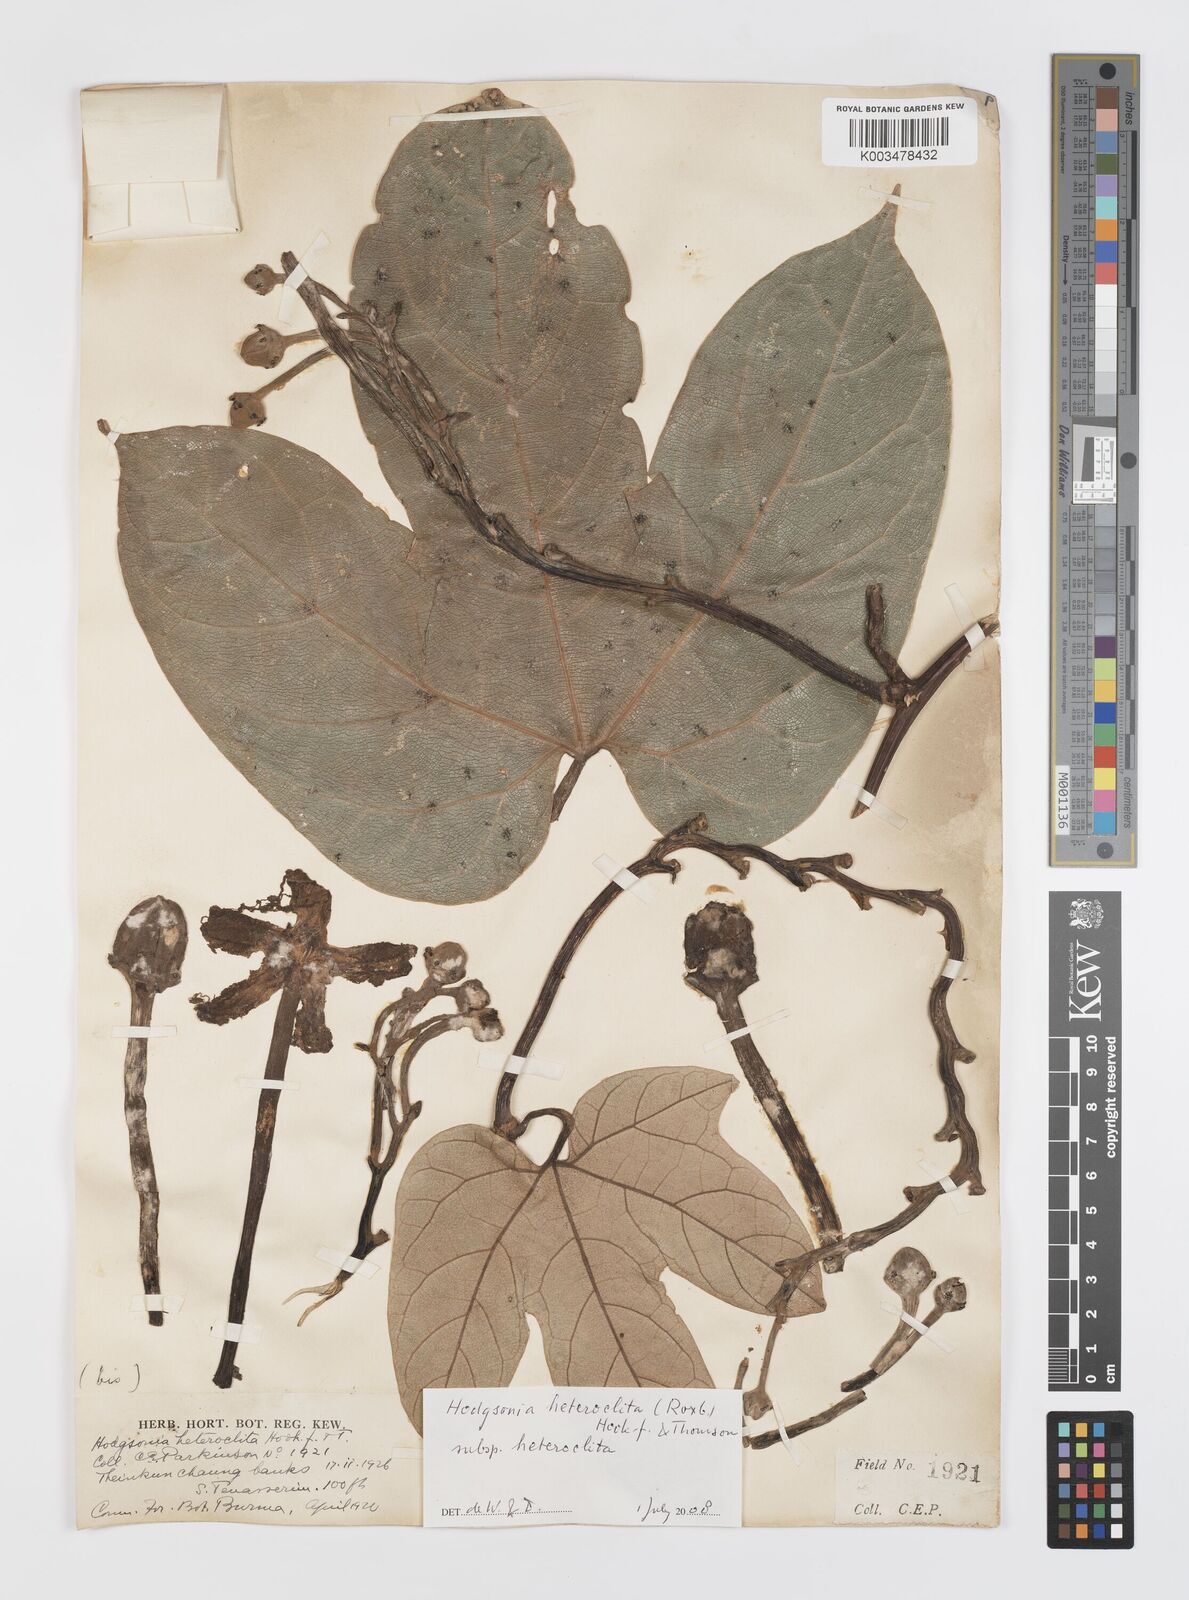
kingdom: Plantae
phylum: Tracheophyta
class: Magnoliopsida
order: Cucurbitales
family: Cucurbitaceae
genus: Hodgsonia
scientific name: Hodgsonia macrocarpa
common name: Chinese lardfruit
